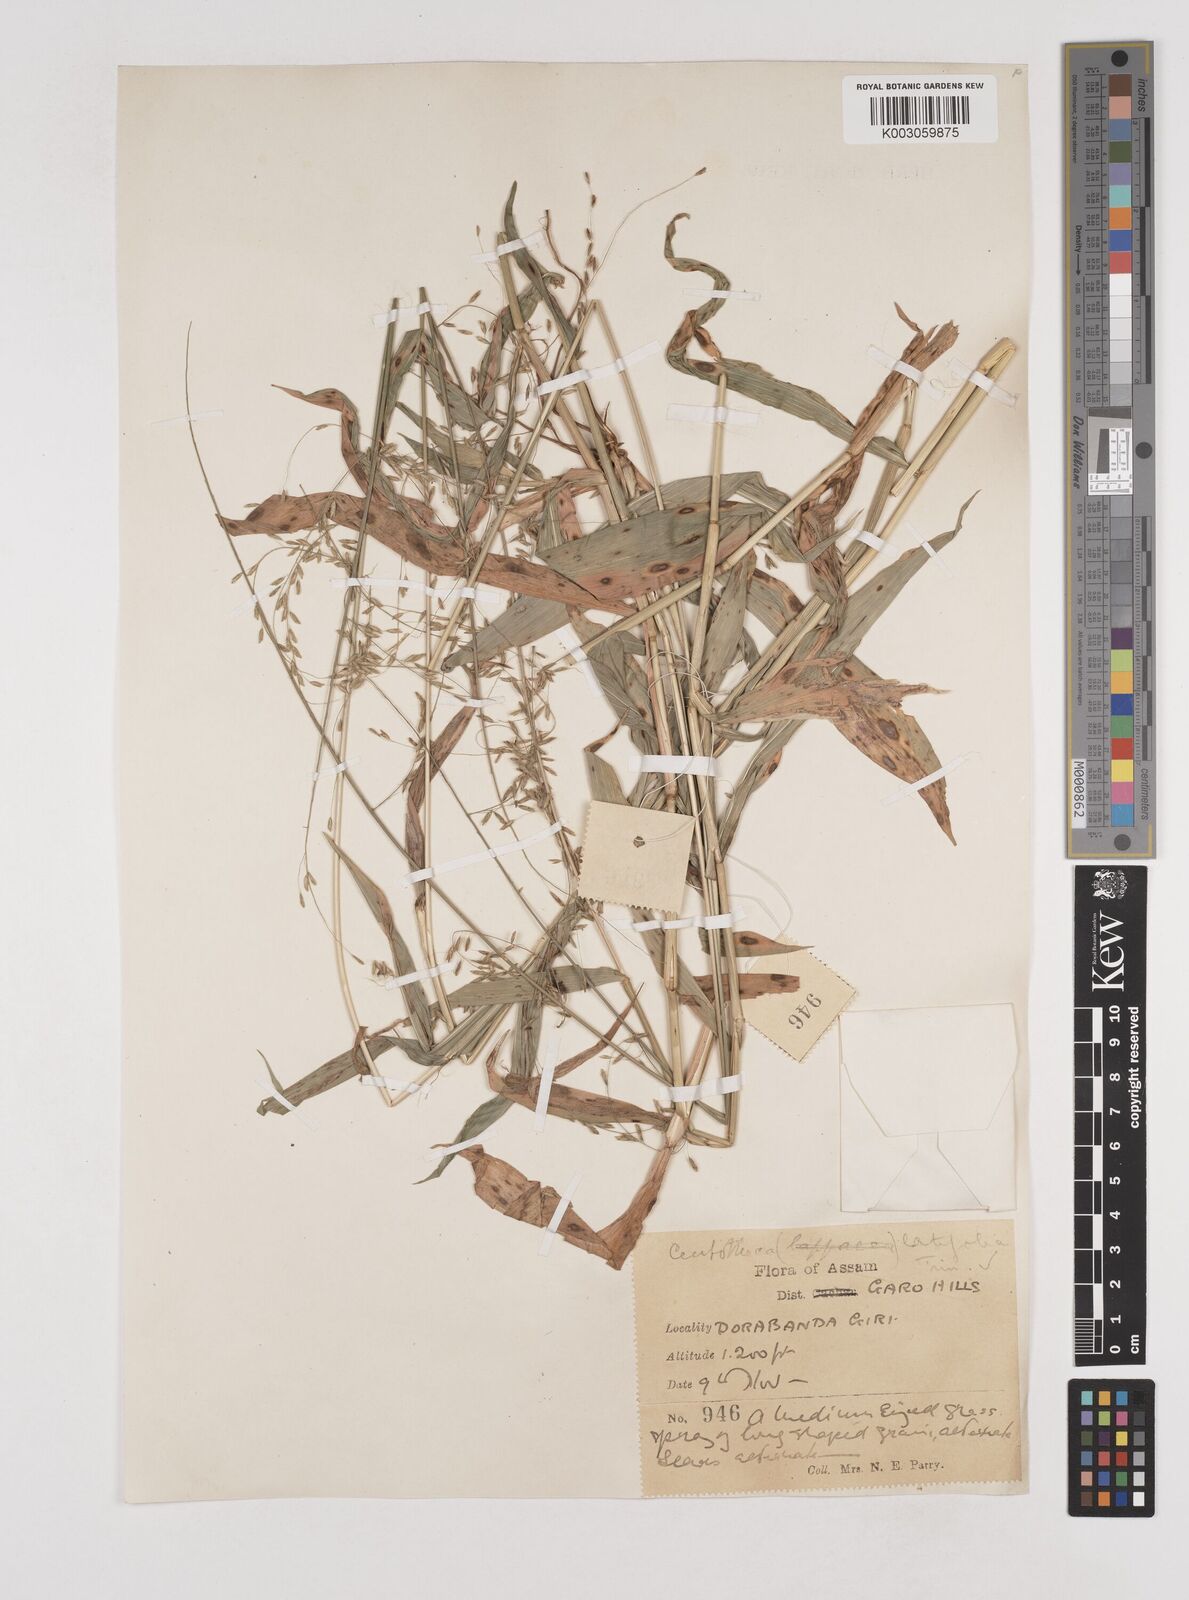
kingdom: Plantae
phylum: Tracheophyta
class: Liliopsida
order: Poales
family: Poaceae
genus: Centotheca
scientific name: Centotheca lappacea
